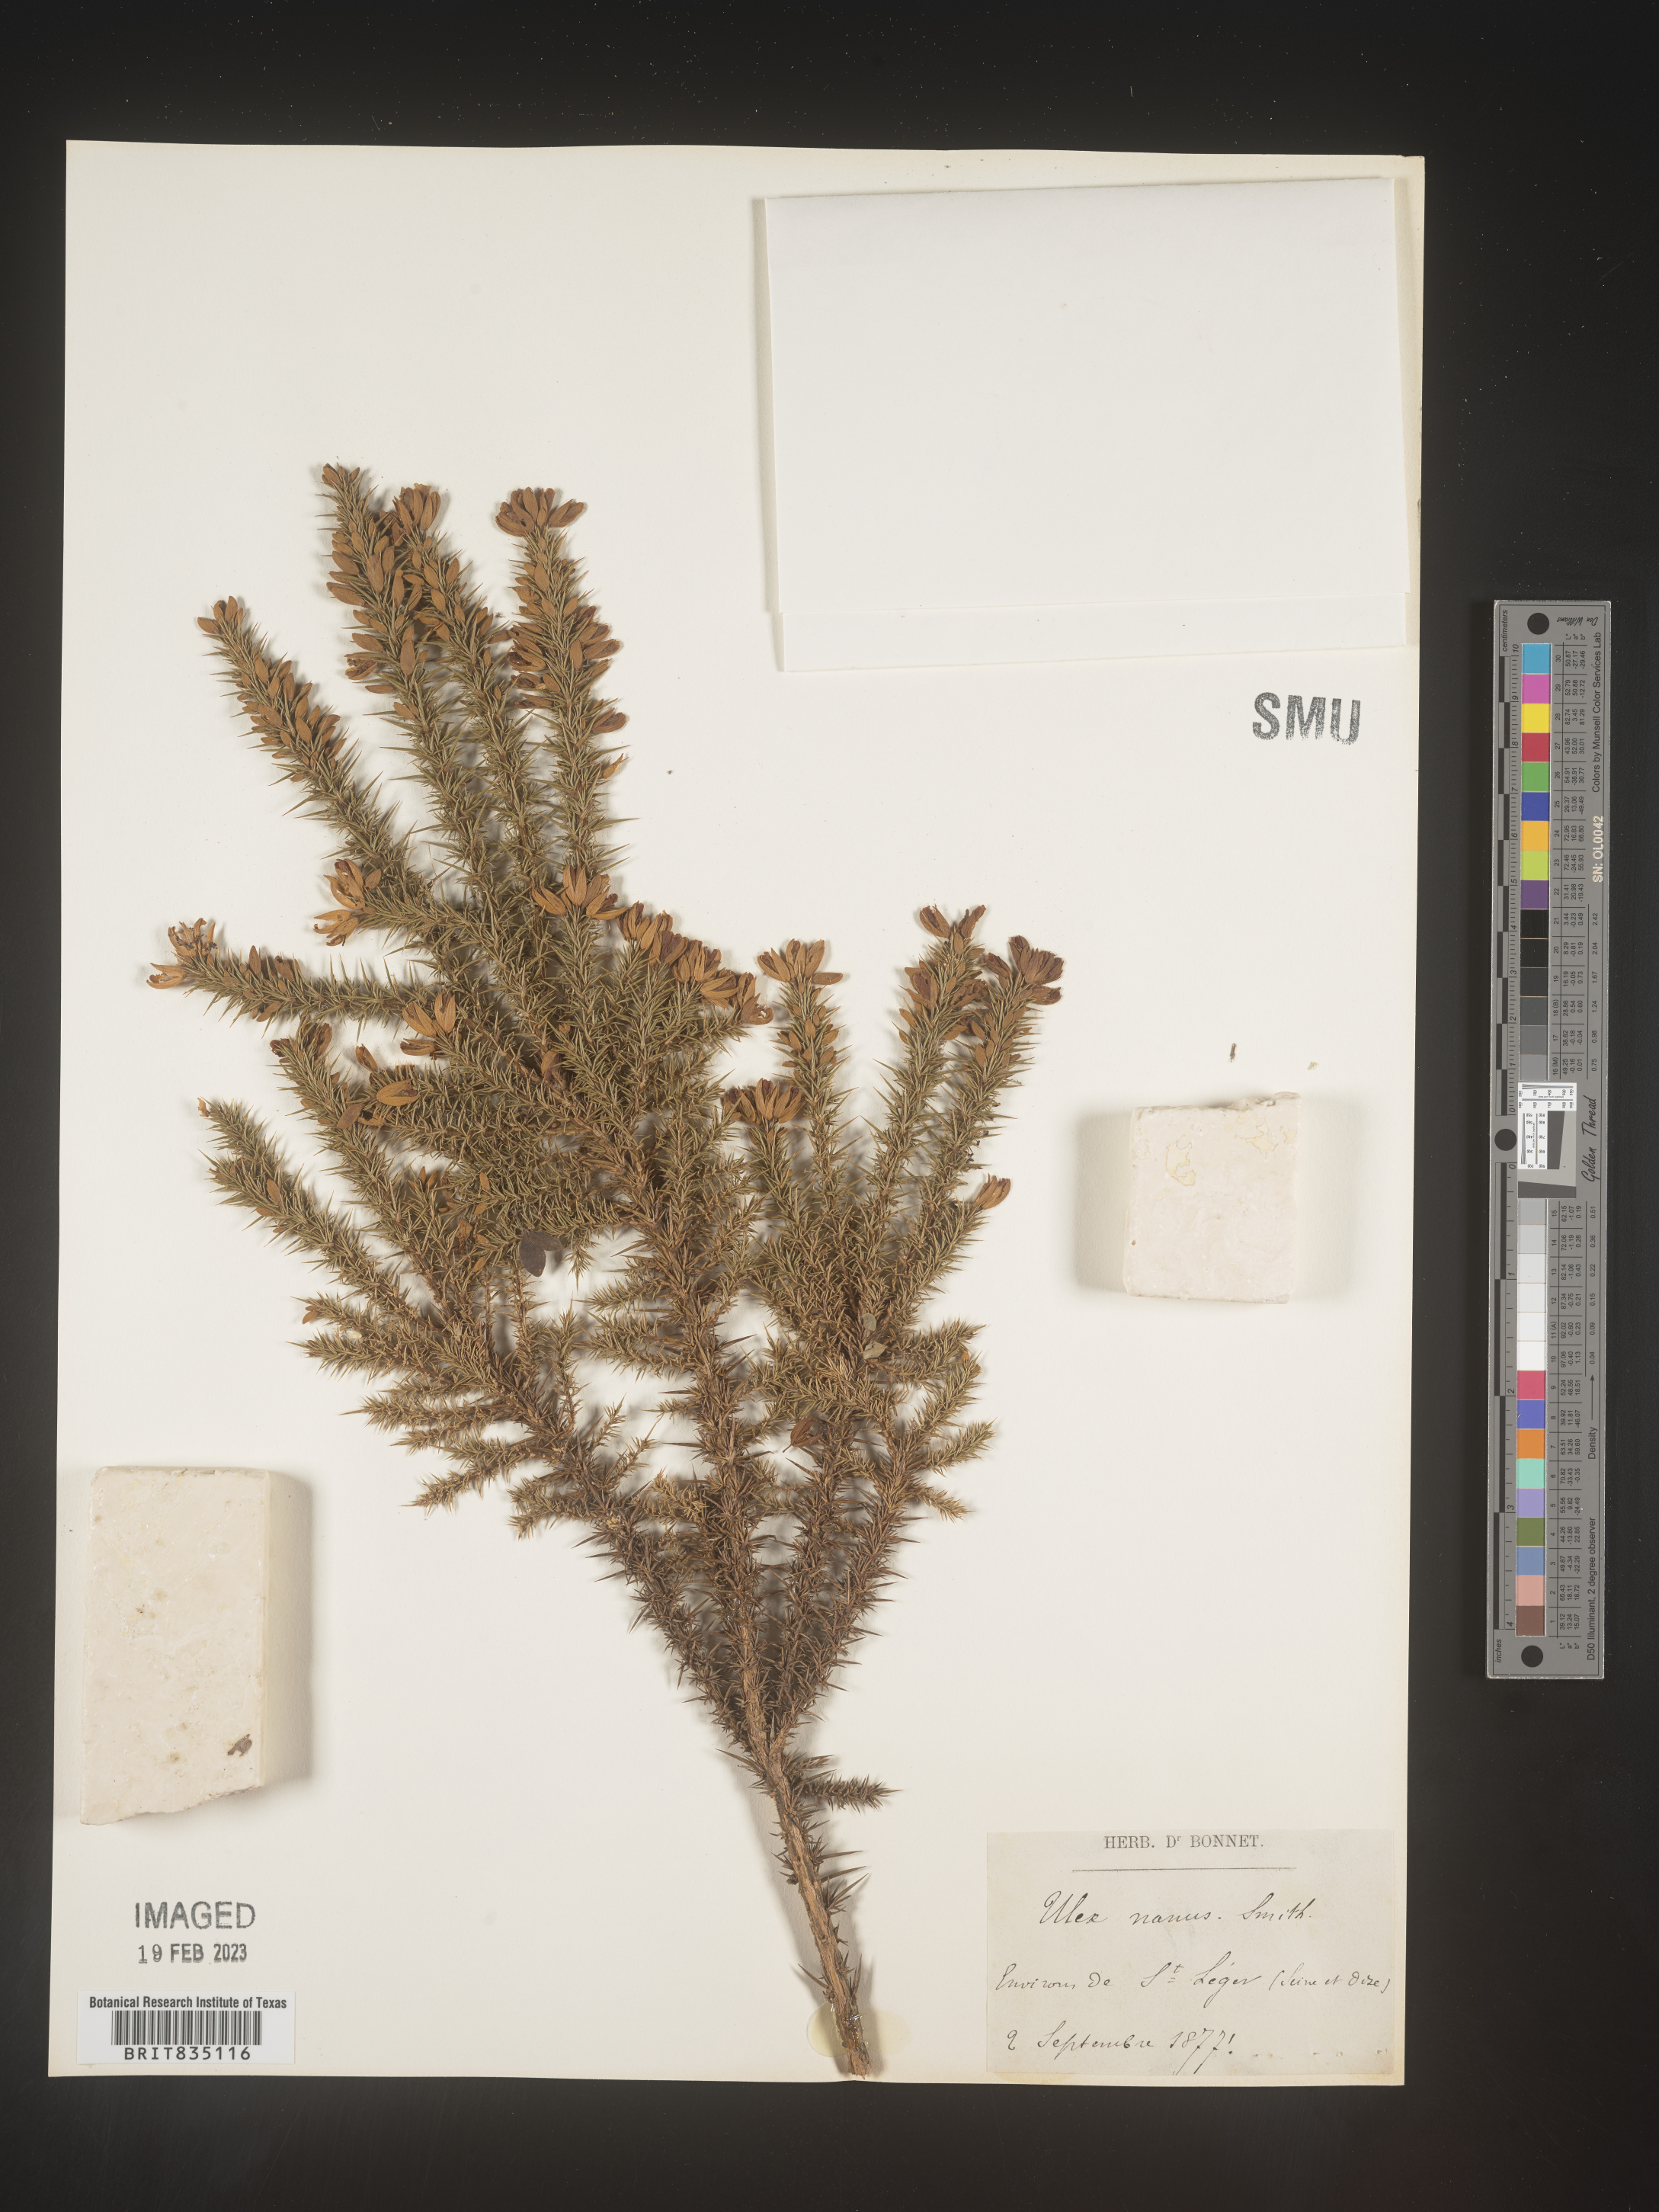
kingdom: Plantae
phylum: Tracheophyta
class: Magnoliopsida
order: Fabales
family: Fabaceae
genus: Ulex
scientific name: Ulex
